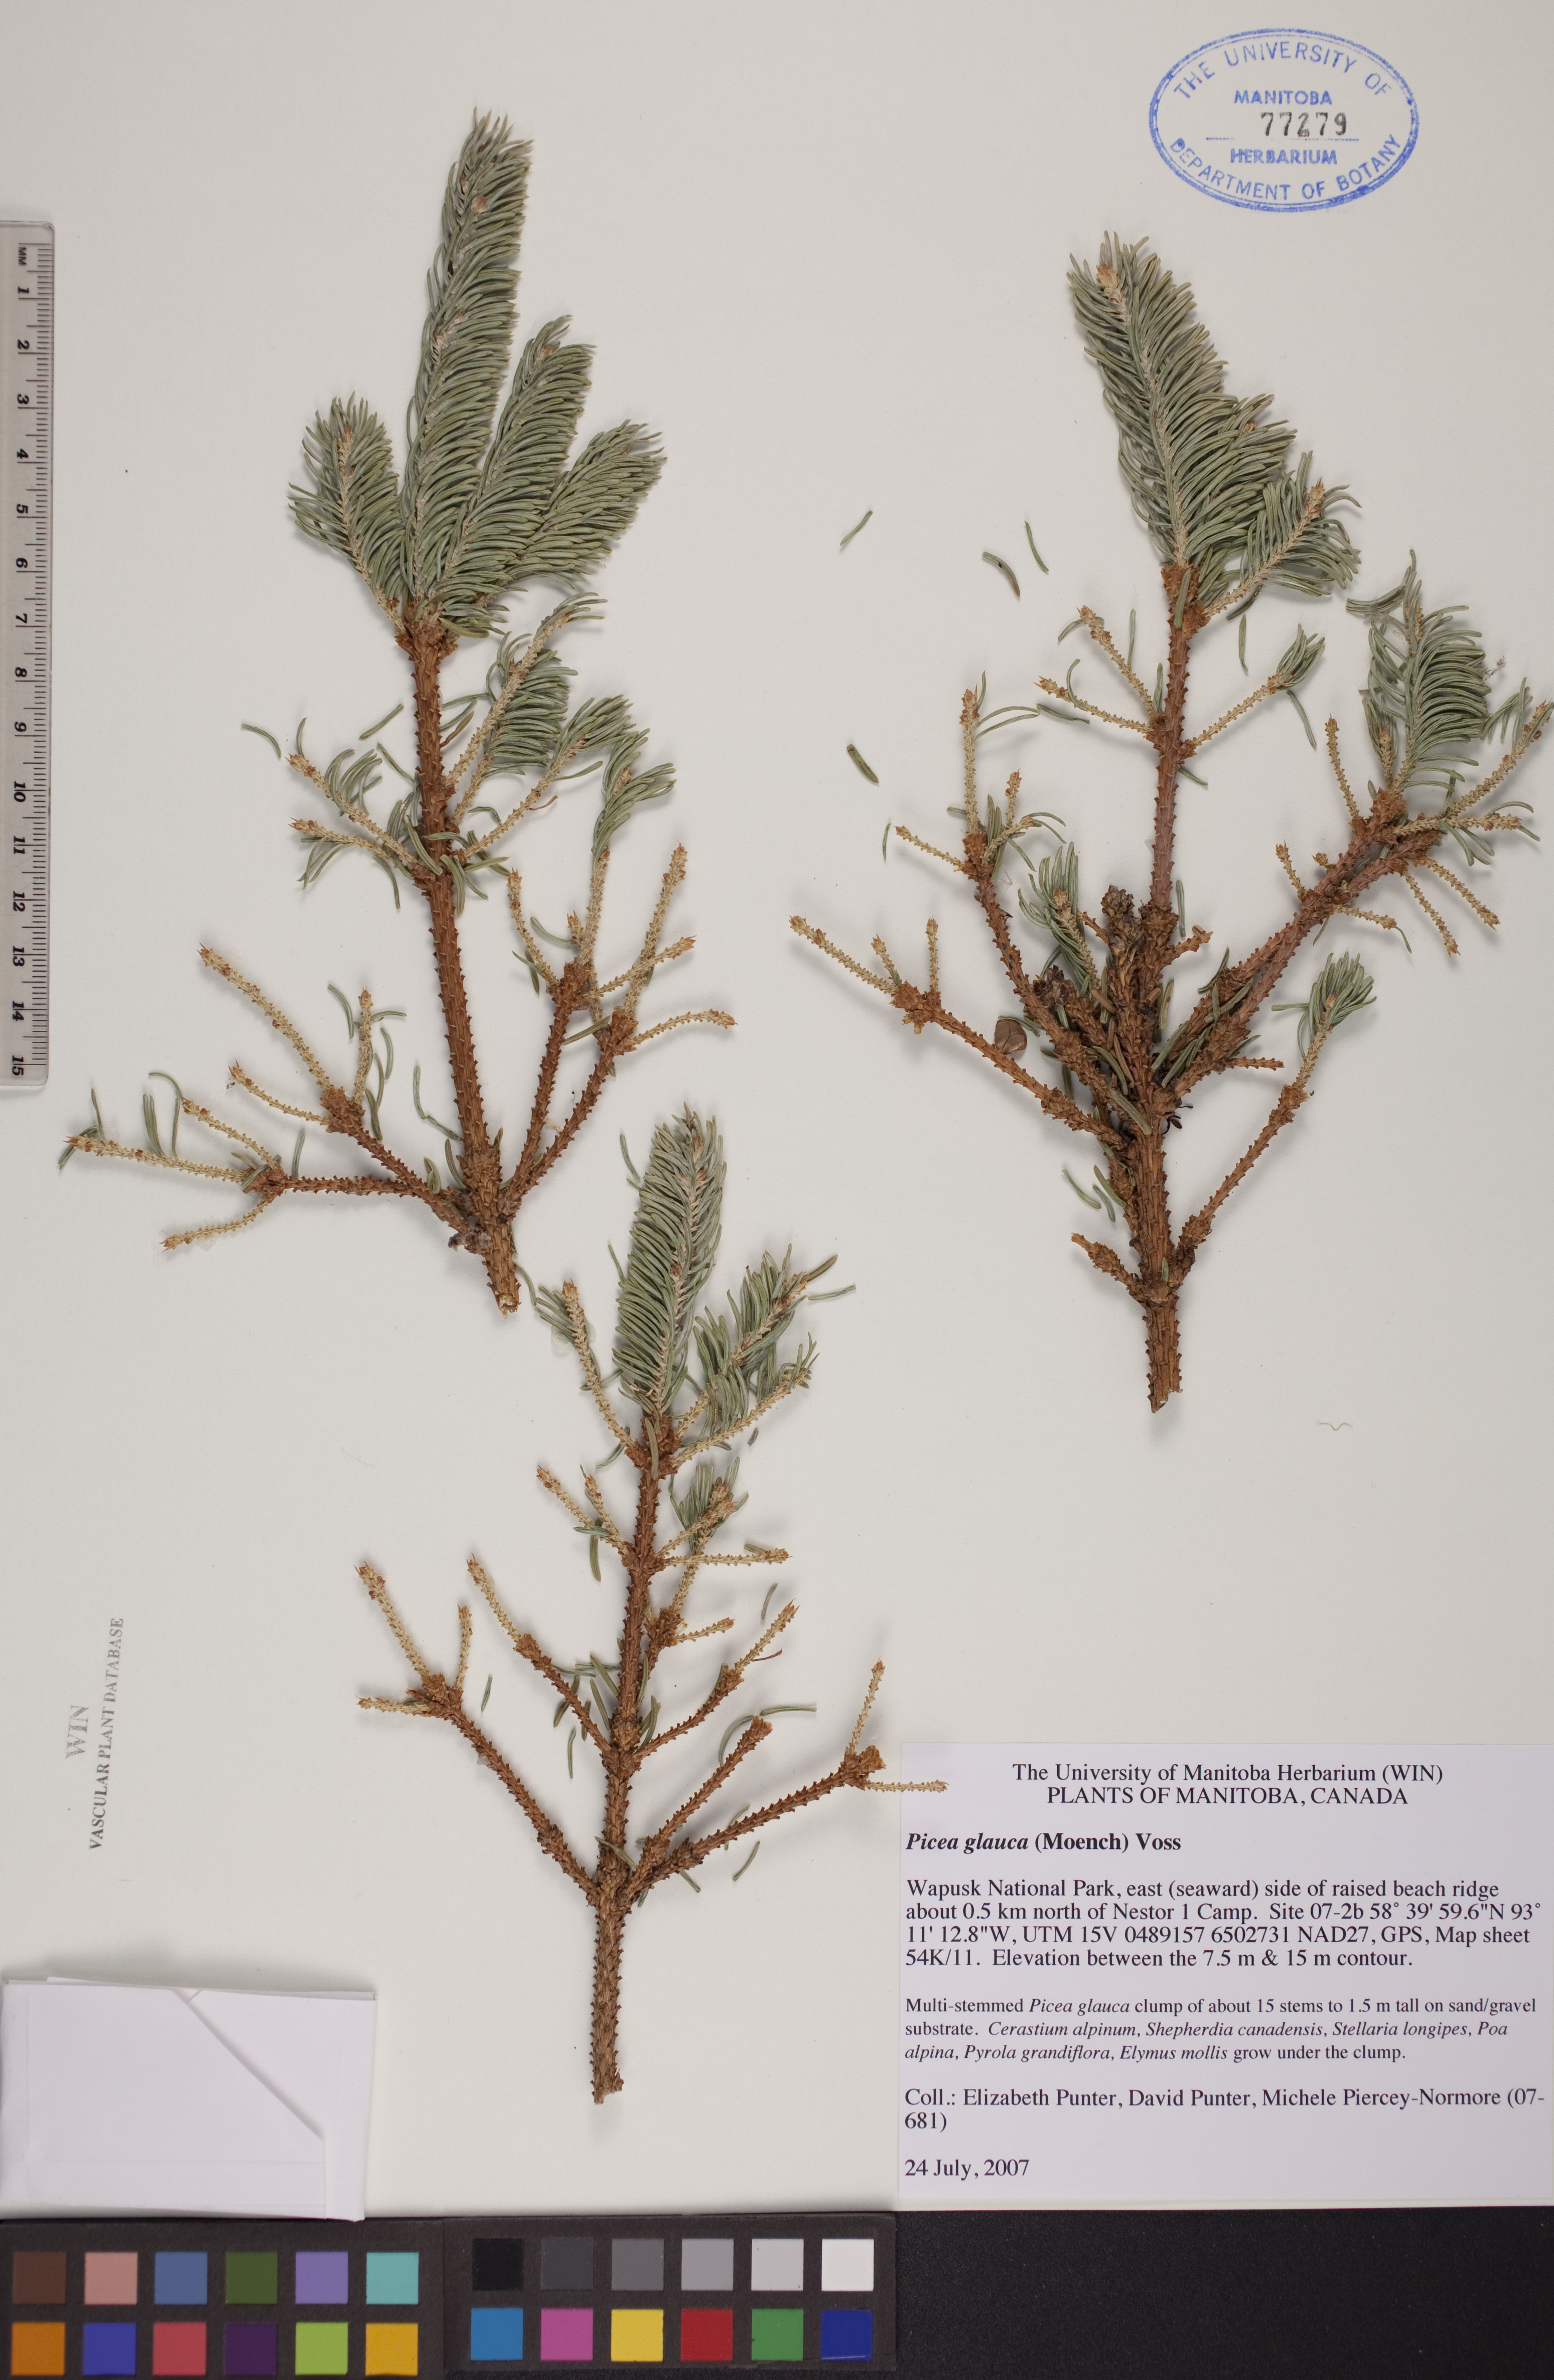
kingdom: Plantae
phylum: Tracheophyta
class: Pinopsida
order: Pinales
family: Pinaceae
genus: Picea
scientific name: Picea glauca
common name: White spruce
